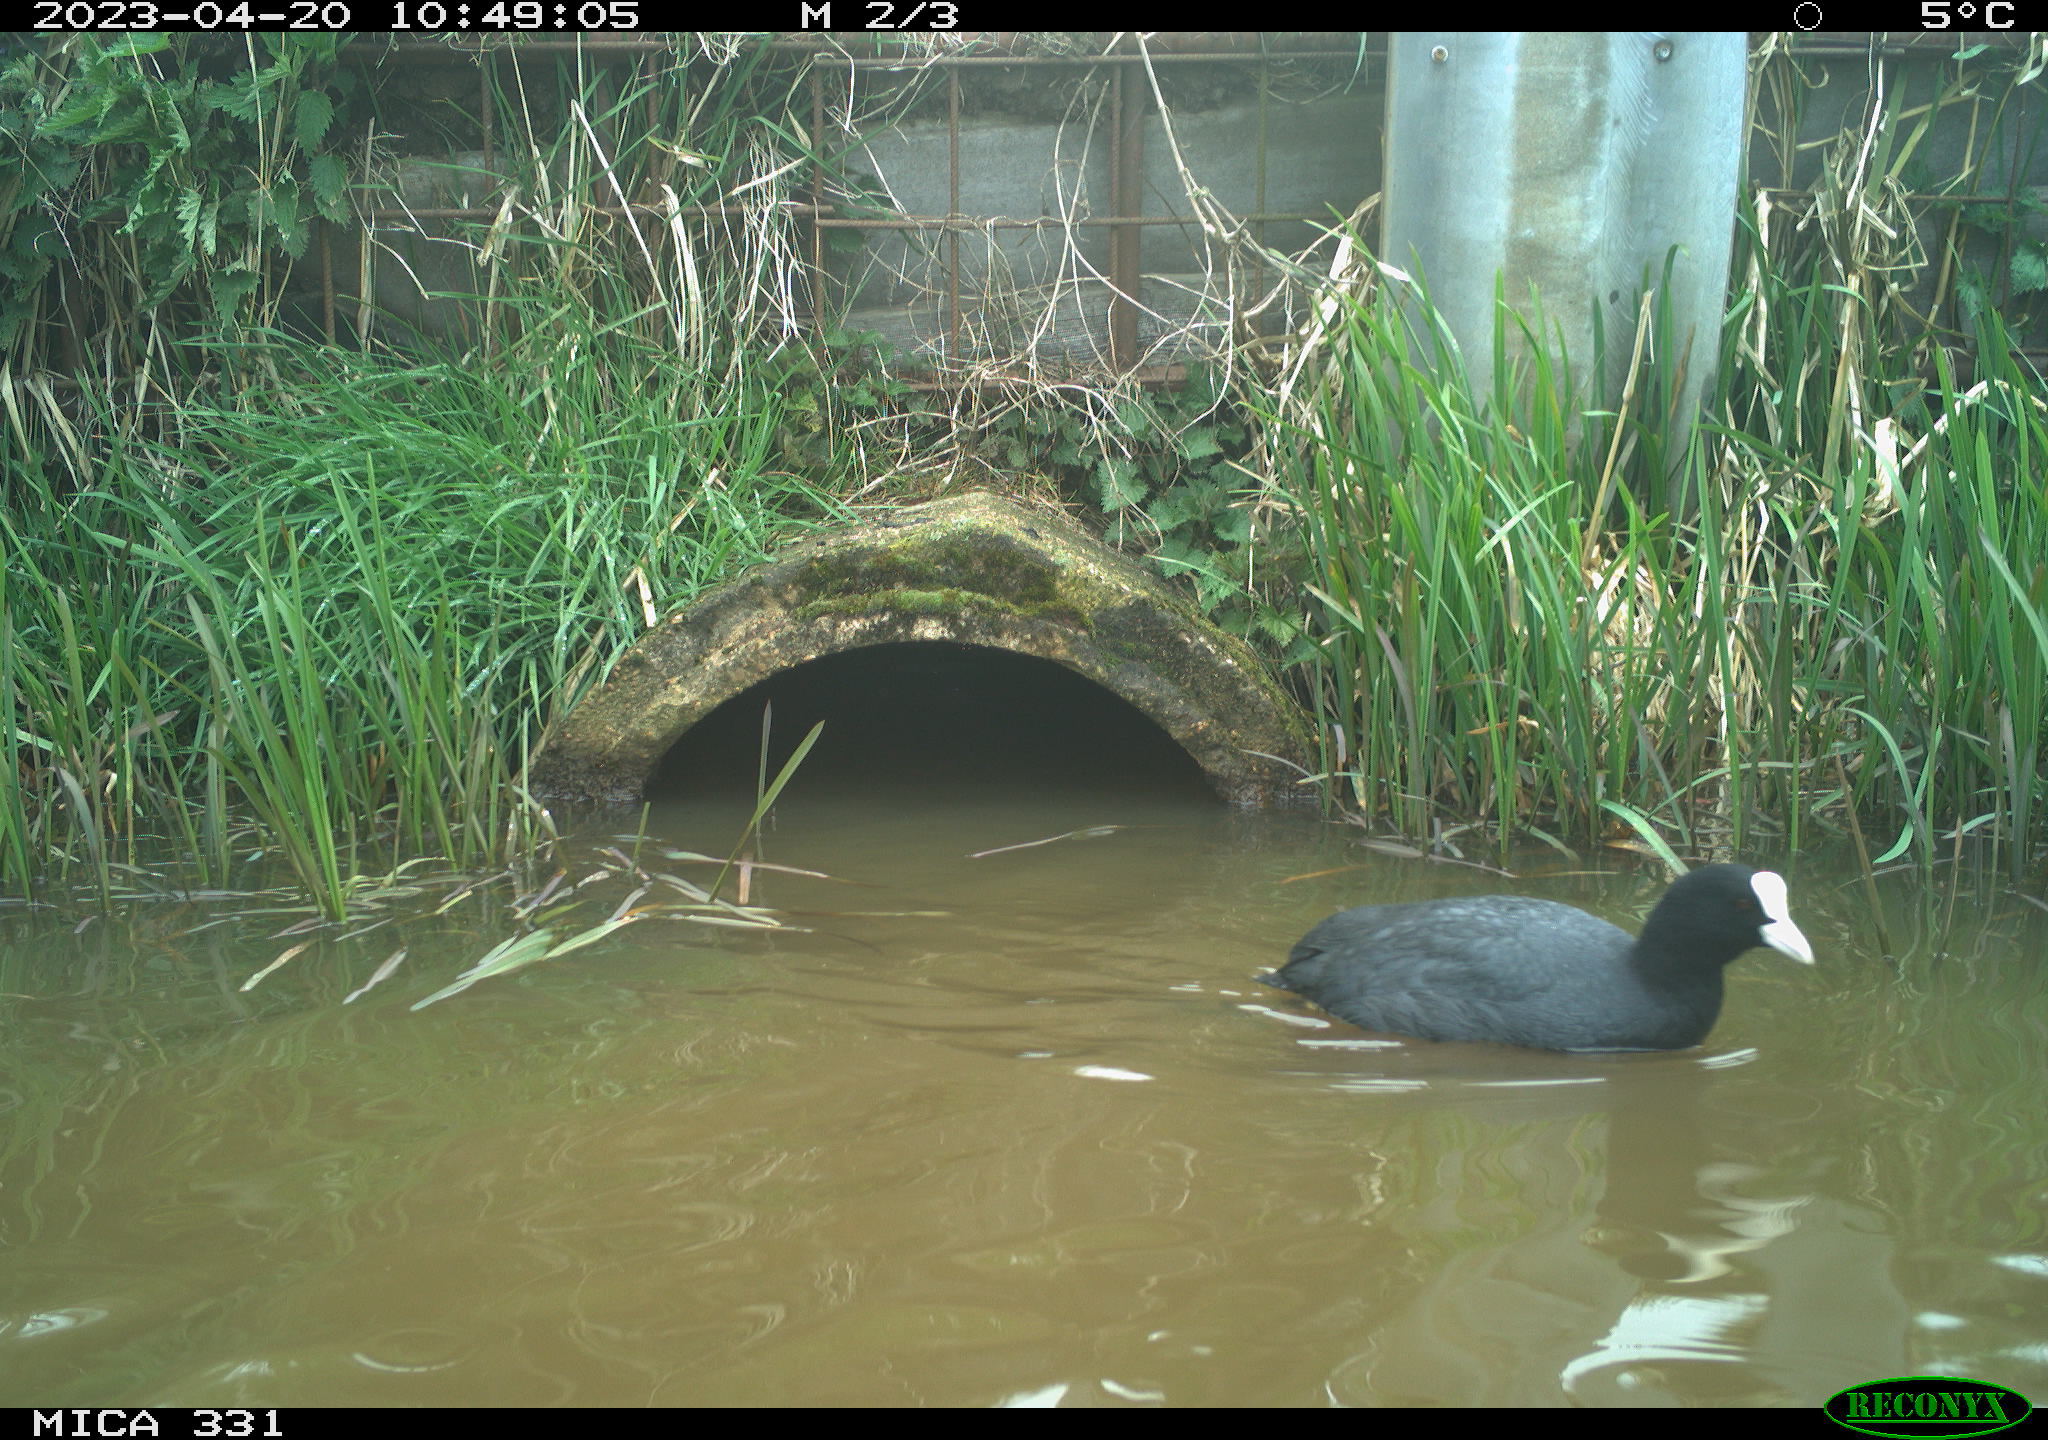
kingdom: Animalia
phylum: Chordata
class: Aves
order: Gruiformes
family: Rallidae
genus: Fulica
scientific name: Fulica atra
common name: Eurasian coot
